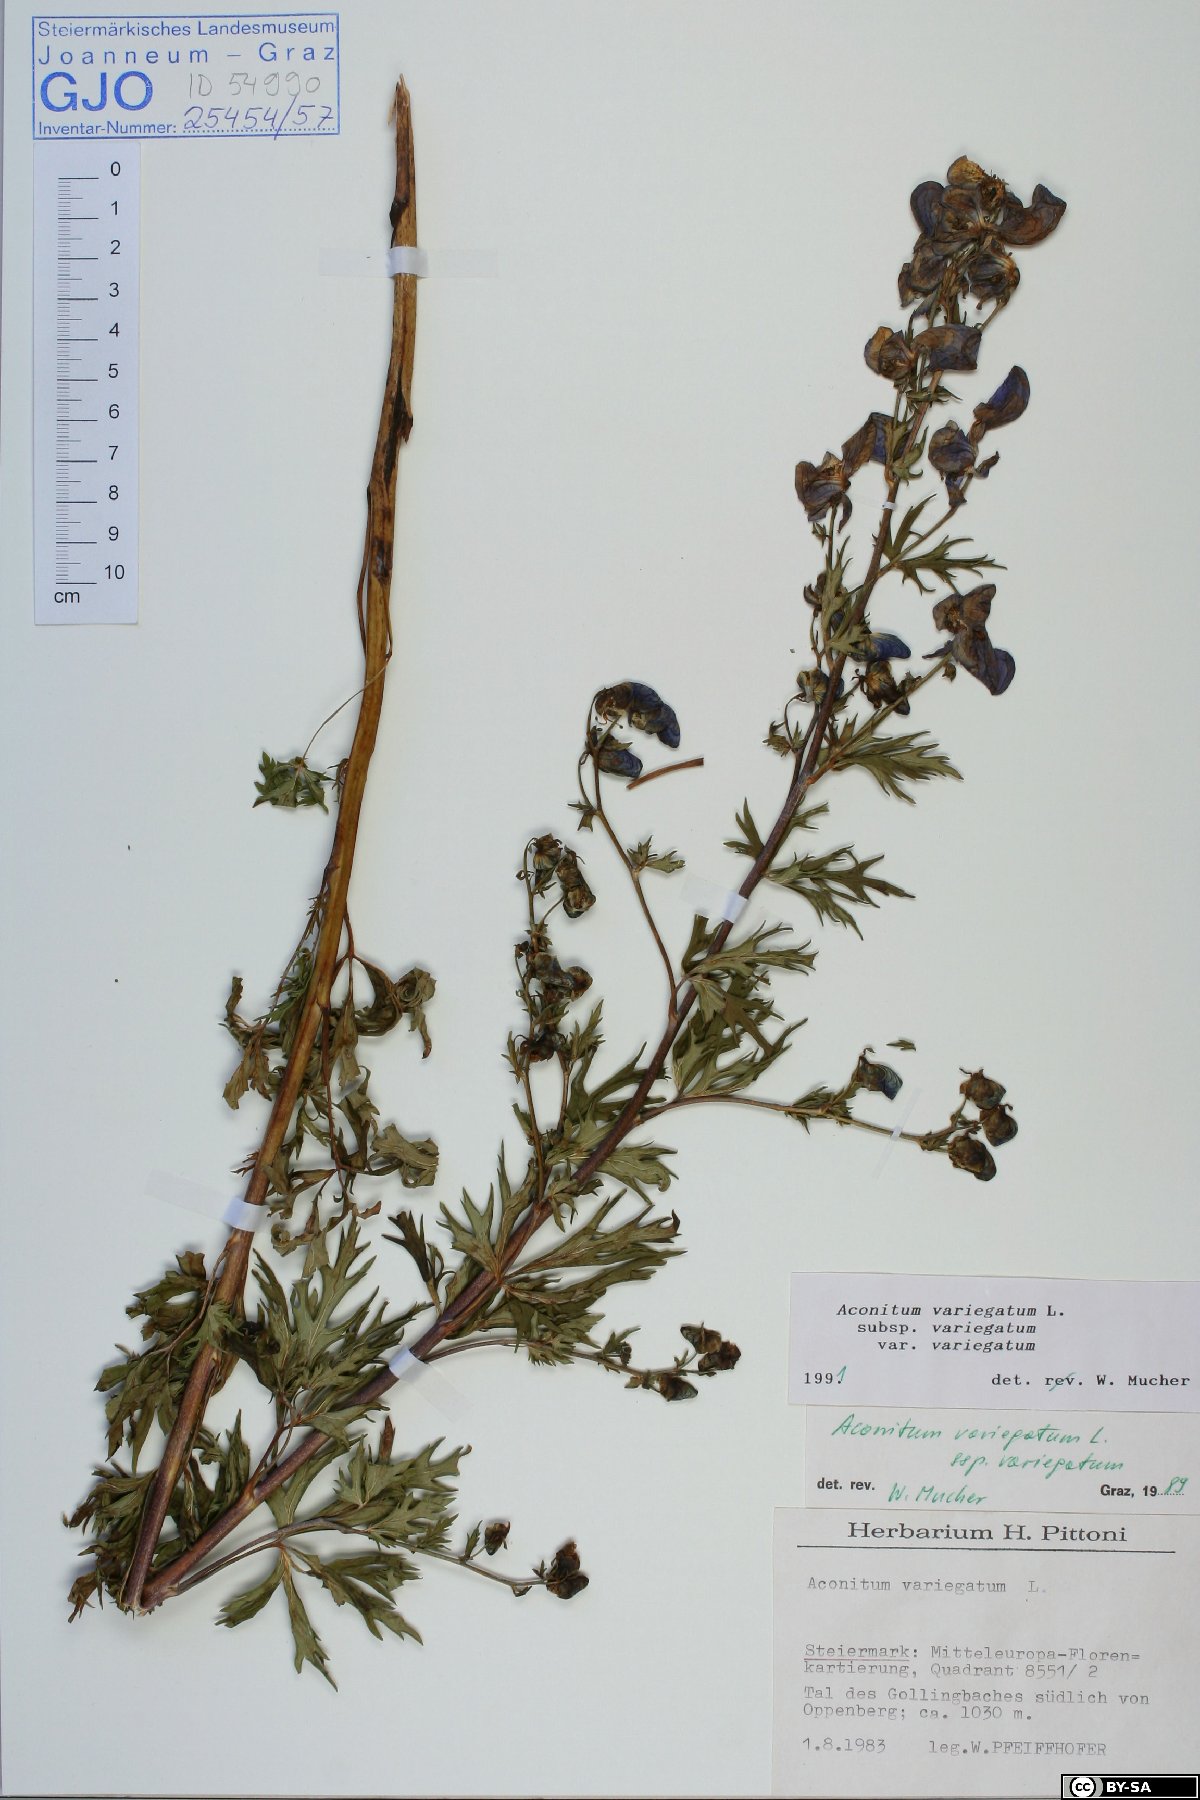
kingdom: Plantae
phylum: Tracheophyta
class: Magnoliopsida
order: Ranunculales
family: Ranunculaceae
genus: Aconitum
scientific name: Aconitum variegatum
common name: Manchurian monkshood
